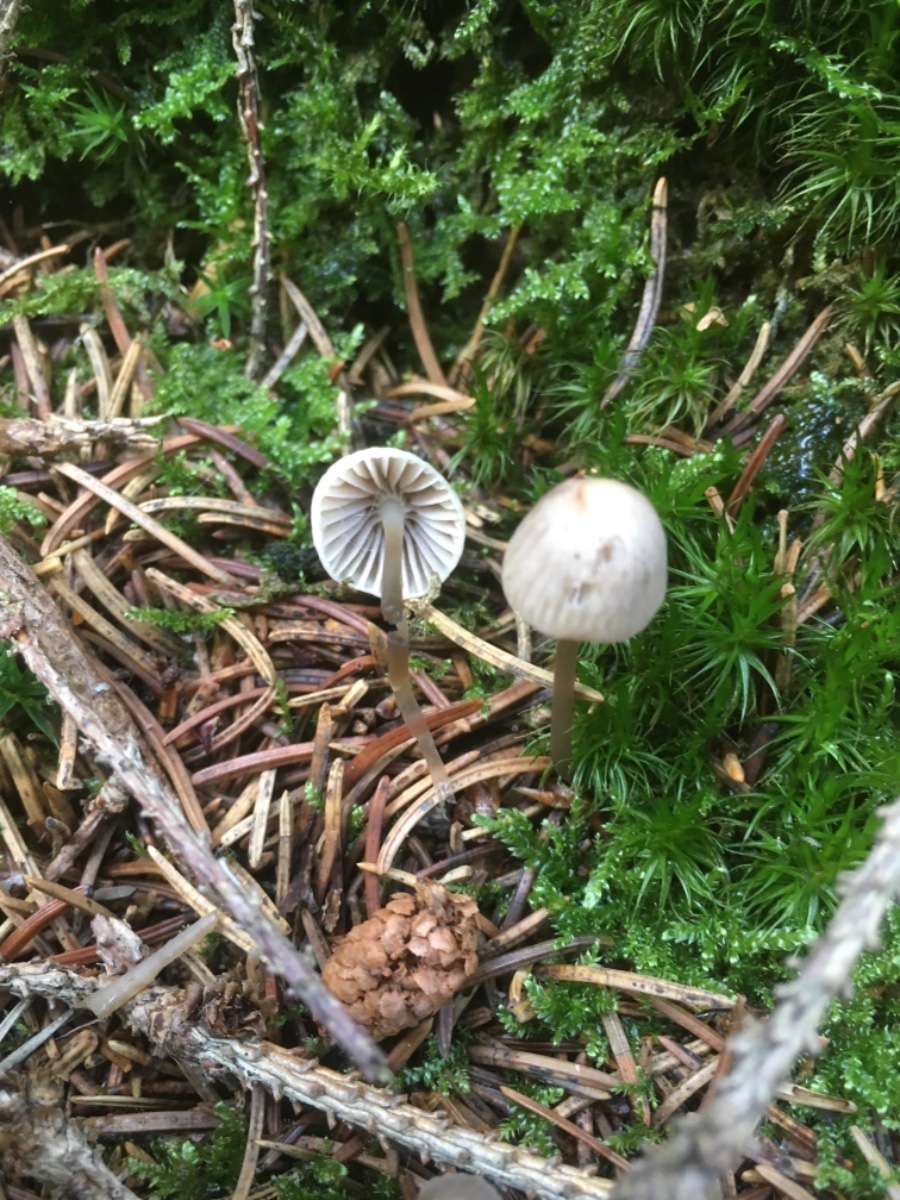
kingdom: Fungi
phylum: Basidiomycota
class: Agaricomycetes
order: Agaricales
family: Mycenaceae
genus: Mycena
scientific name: Mycena leptocephala
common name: klor-huesvamp
